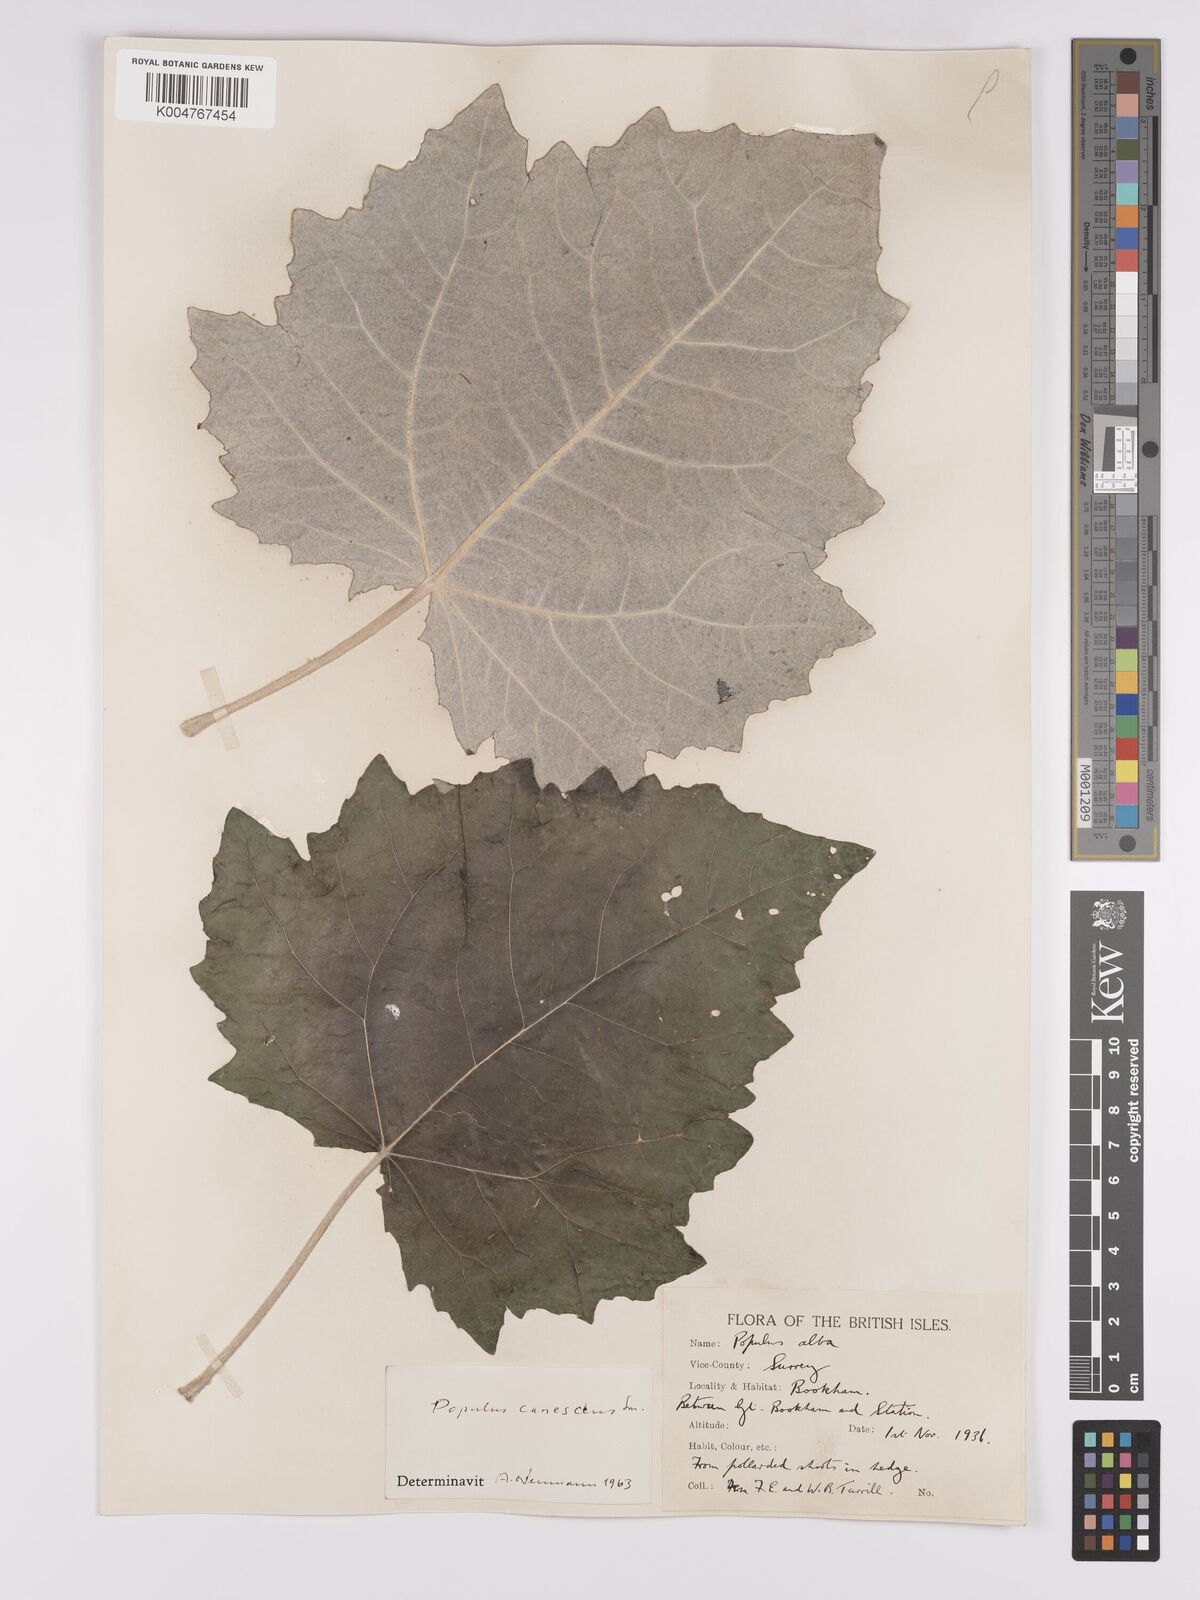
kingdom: Plantae
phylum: Tracheophyta
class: Magnoliopsida
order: Malpighiales
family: Salicaceae
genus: Populus
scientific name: Populus canescens
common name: Gray poplar
